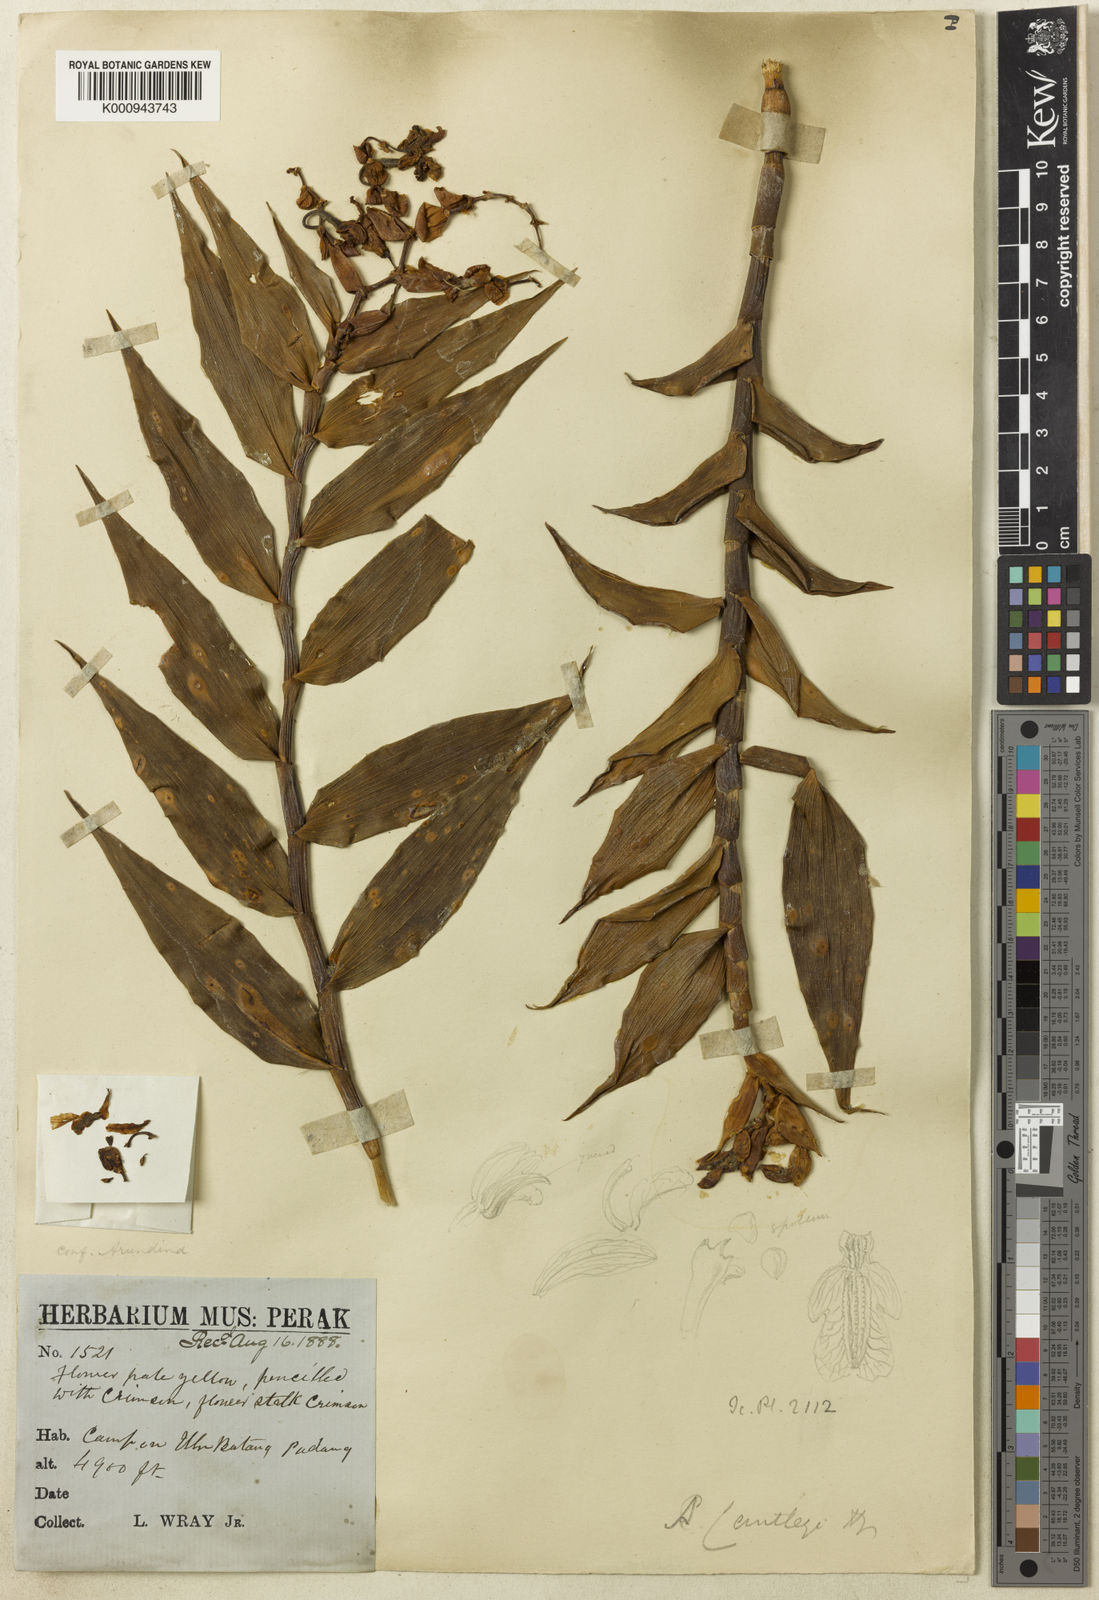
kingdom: Plantae
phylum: Tracheophyta
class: Liliopsida
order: Asparagales
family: Orchidaceae
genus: Dilochia
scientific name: Dilochia cantleyi
